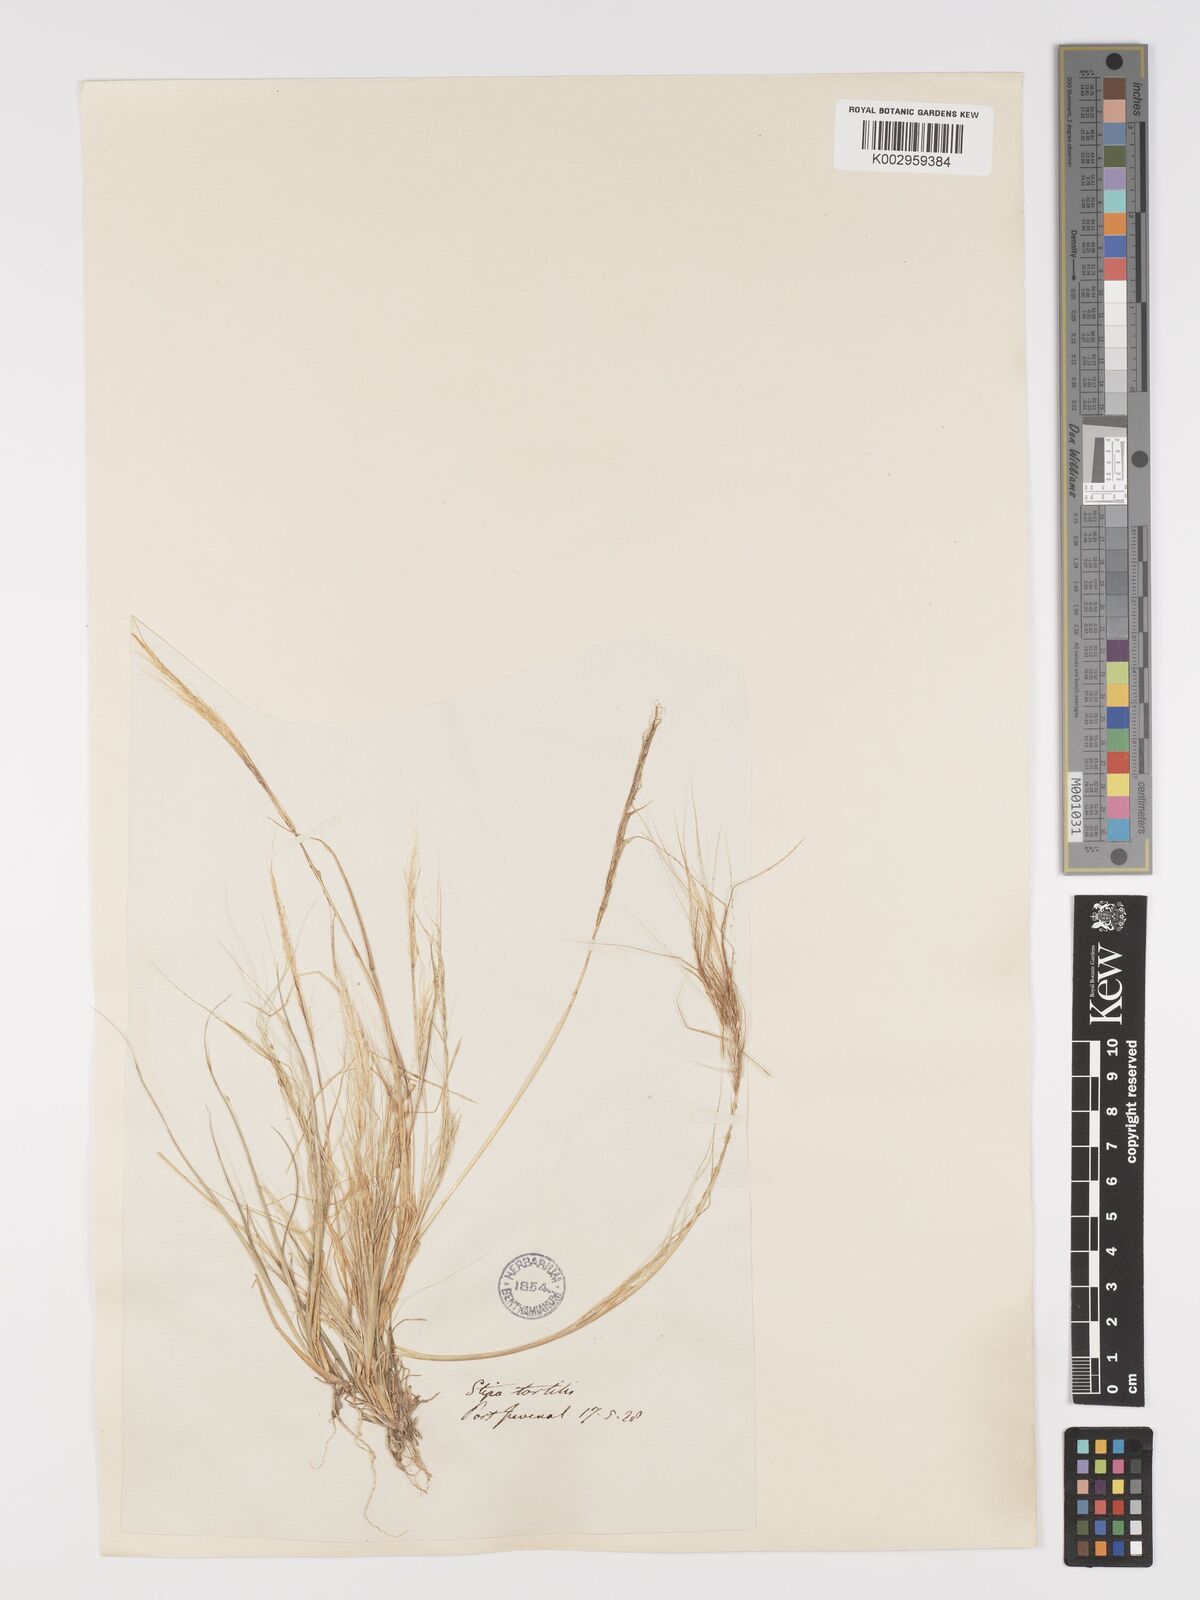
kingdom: Plantae
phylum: Tracheophyta
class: Liliopsida
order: Poales
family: Poaceae
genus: Stipellula
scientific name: Stipellula capensis
